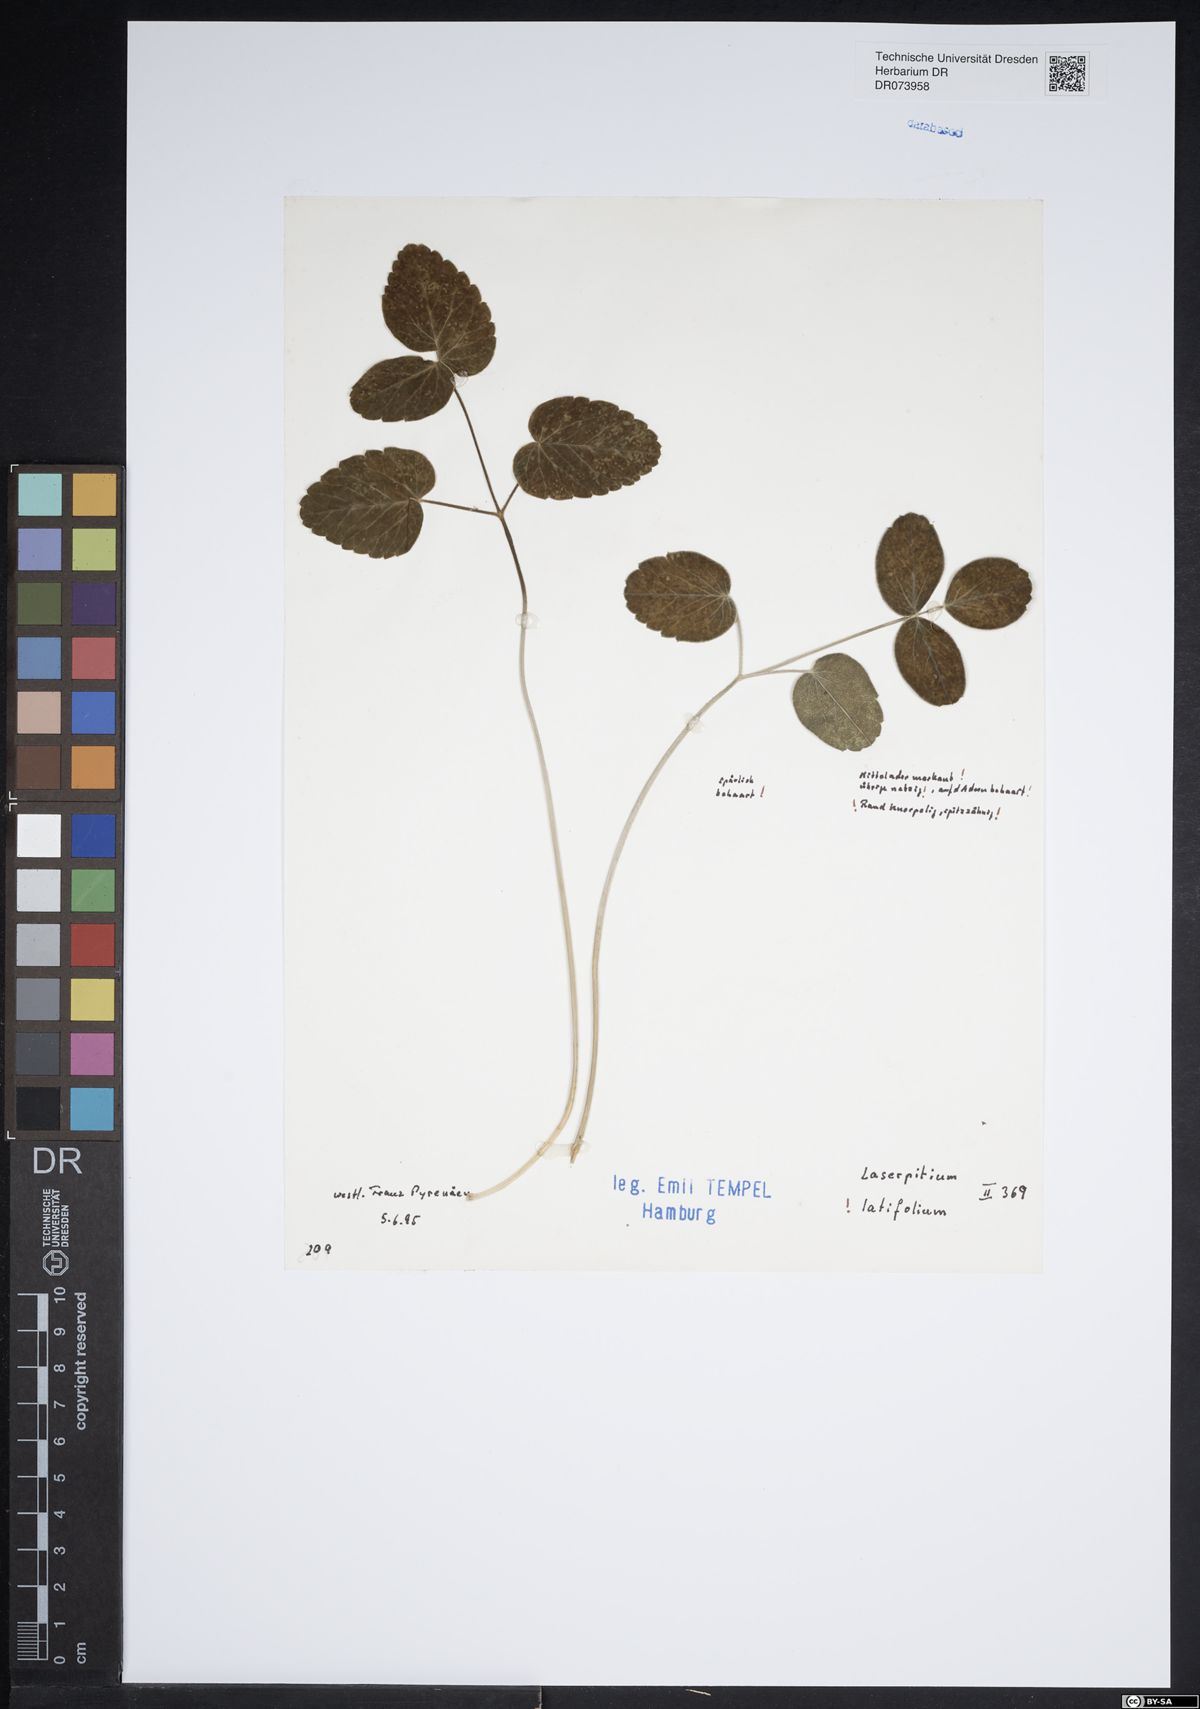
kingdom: Plantae
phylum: Tracheophyta
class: Magnoliopsida
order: Apiales
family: Apiaceae
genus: Laserpitium
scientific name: Laserpitium latifolium
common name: Broadleaf sermountain
